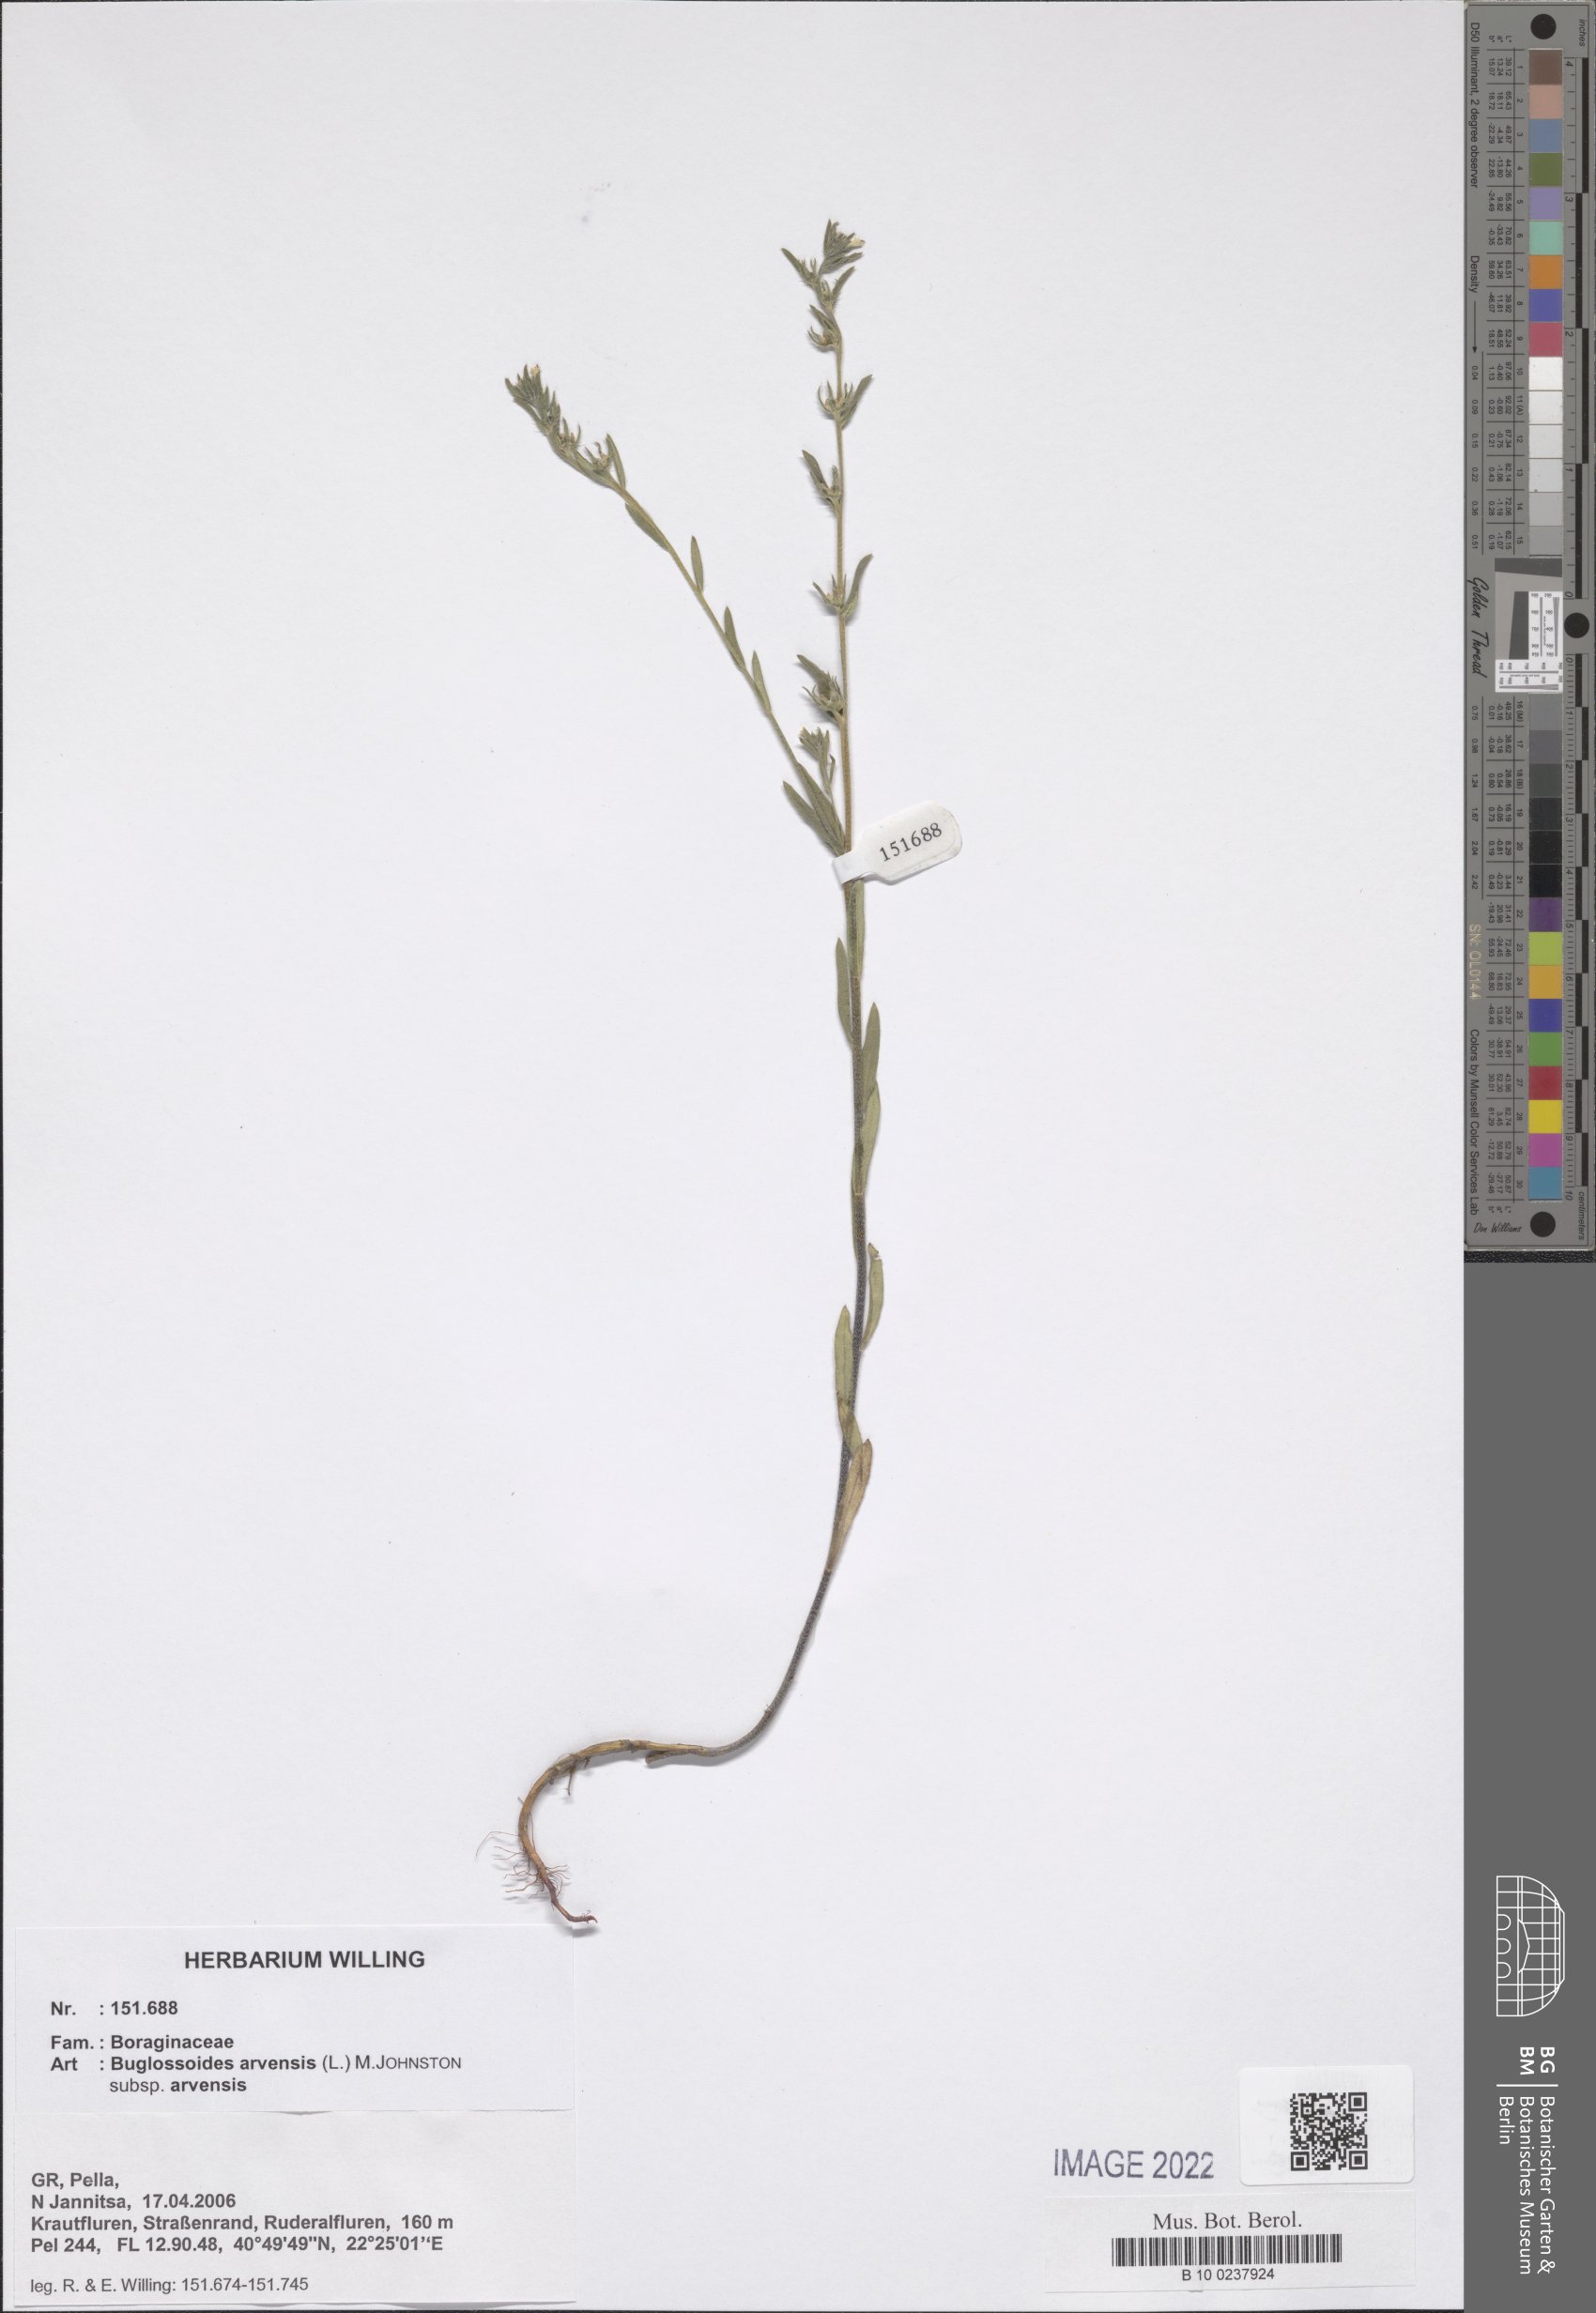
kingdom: Plantae
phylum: Tracheophyta
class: Magnoliopsida
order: Boraginales
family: Boraginaceae
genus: Buglossoides
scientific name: Buglossoides arvensis
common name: Corn gromwell
